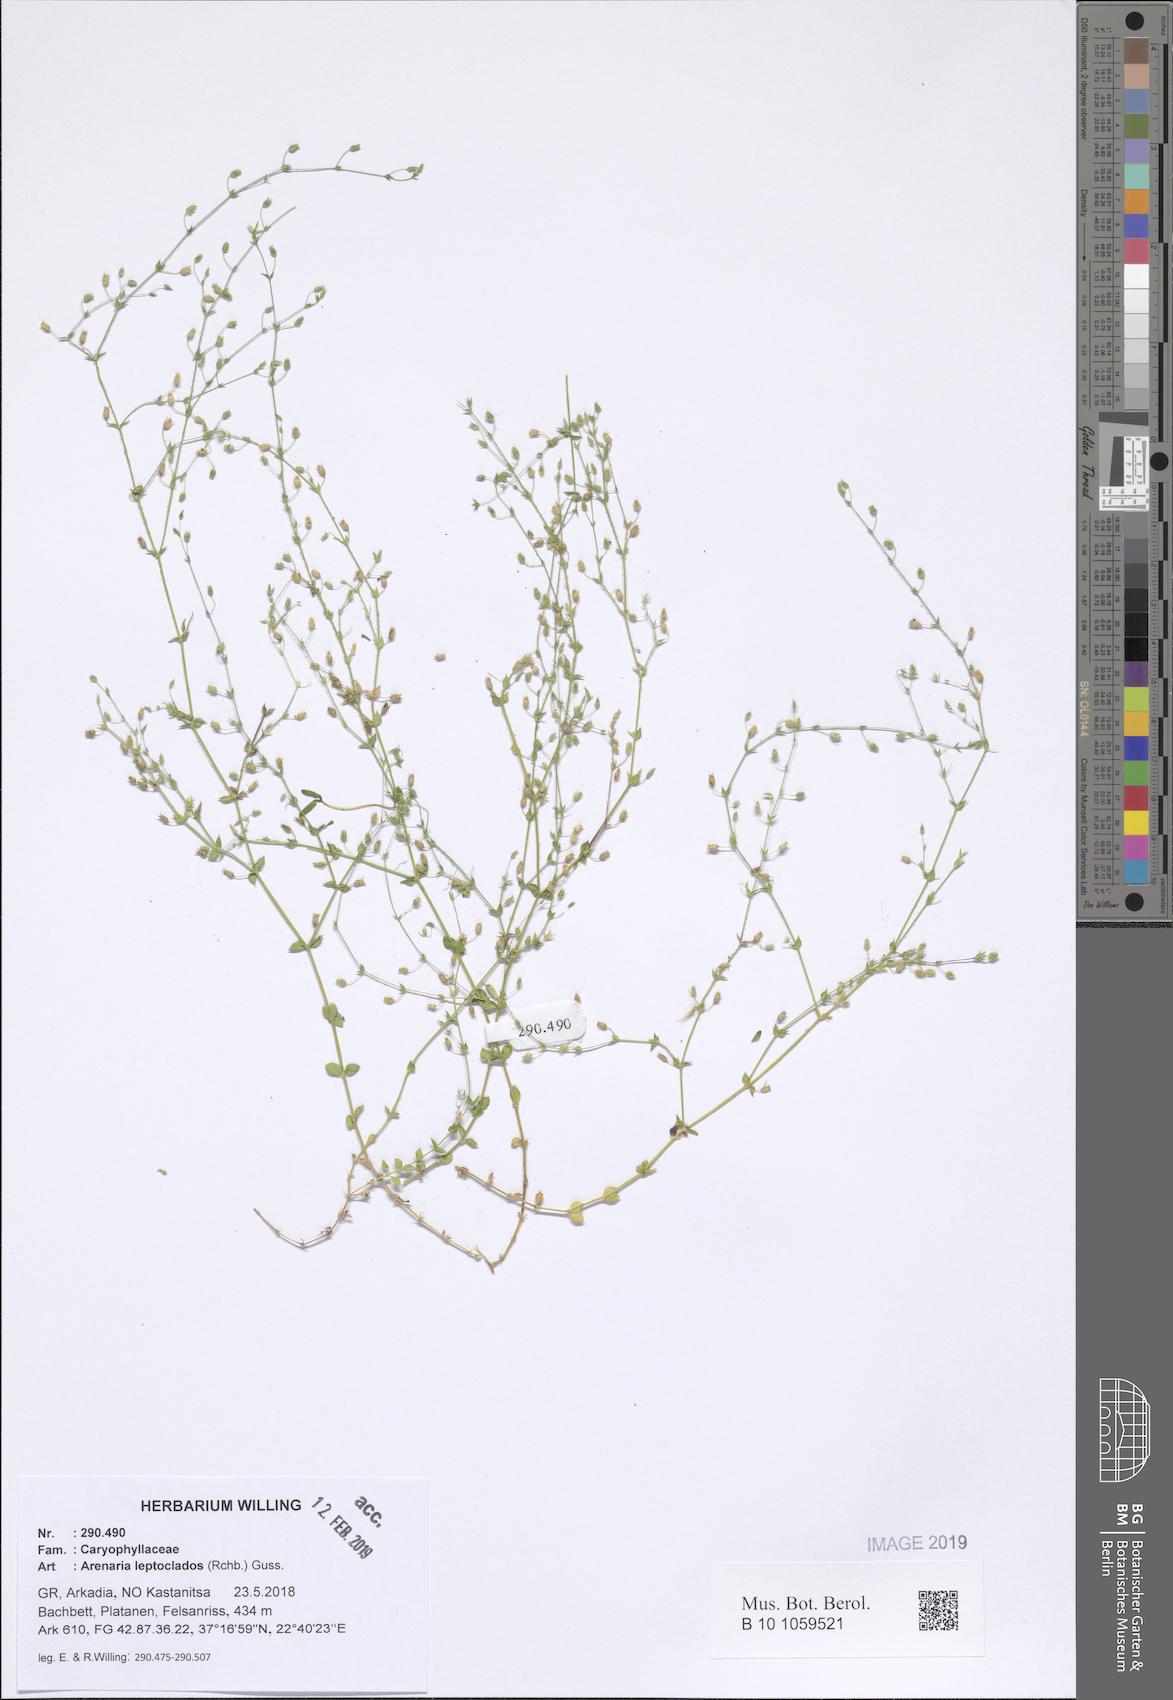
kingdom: Plantae
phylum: Tracheophyta
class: Magnoliopsida
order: Caryophyllales
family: Caryophyllaceae
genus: Arenaria
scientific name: Arenaria leptoclados
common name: Thyme-leaved sandwort
